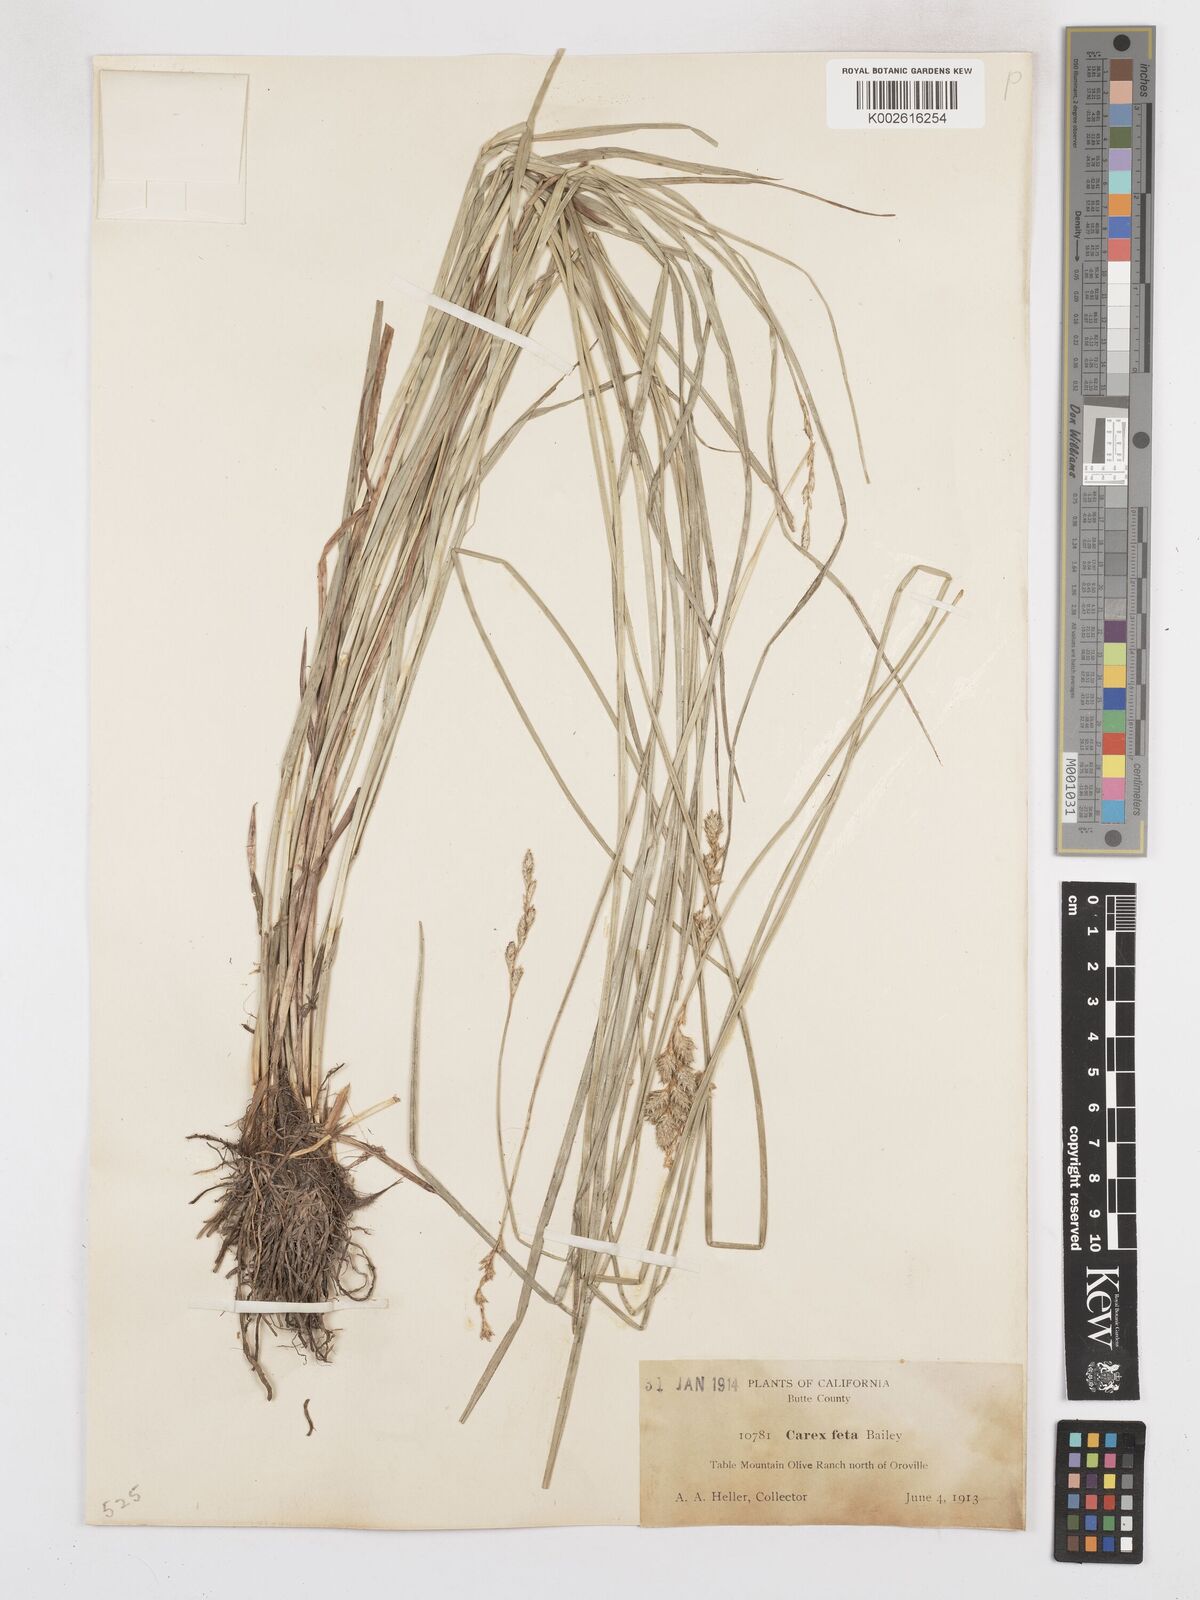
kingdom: Plantae
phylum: Tracheophyta
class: Liliopsida
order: Poales
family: Cyperaceae
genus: Carex
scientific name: Carex feta
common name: Green-sheathed sedge
